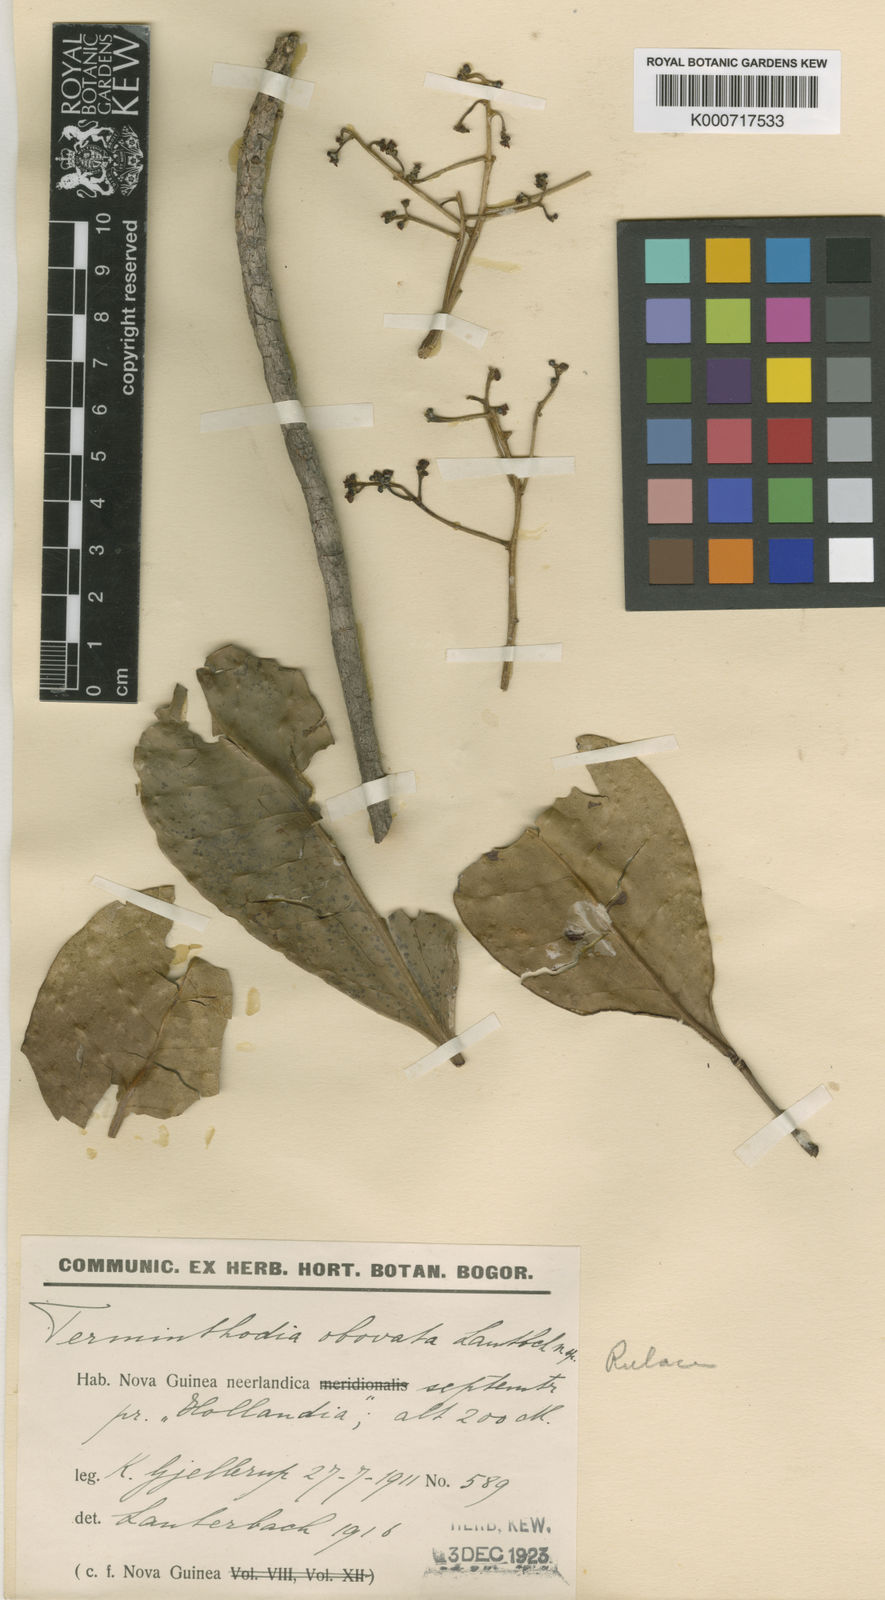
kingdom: Plantae
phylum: Tracheophyta
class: Magnoliopsida
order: Sapindales
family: Rutaceae
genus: Tetractomia
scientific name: Tetractomia tetrandra
